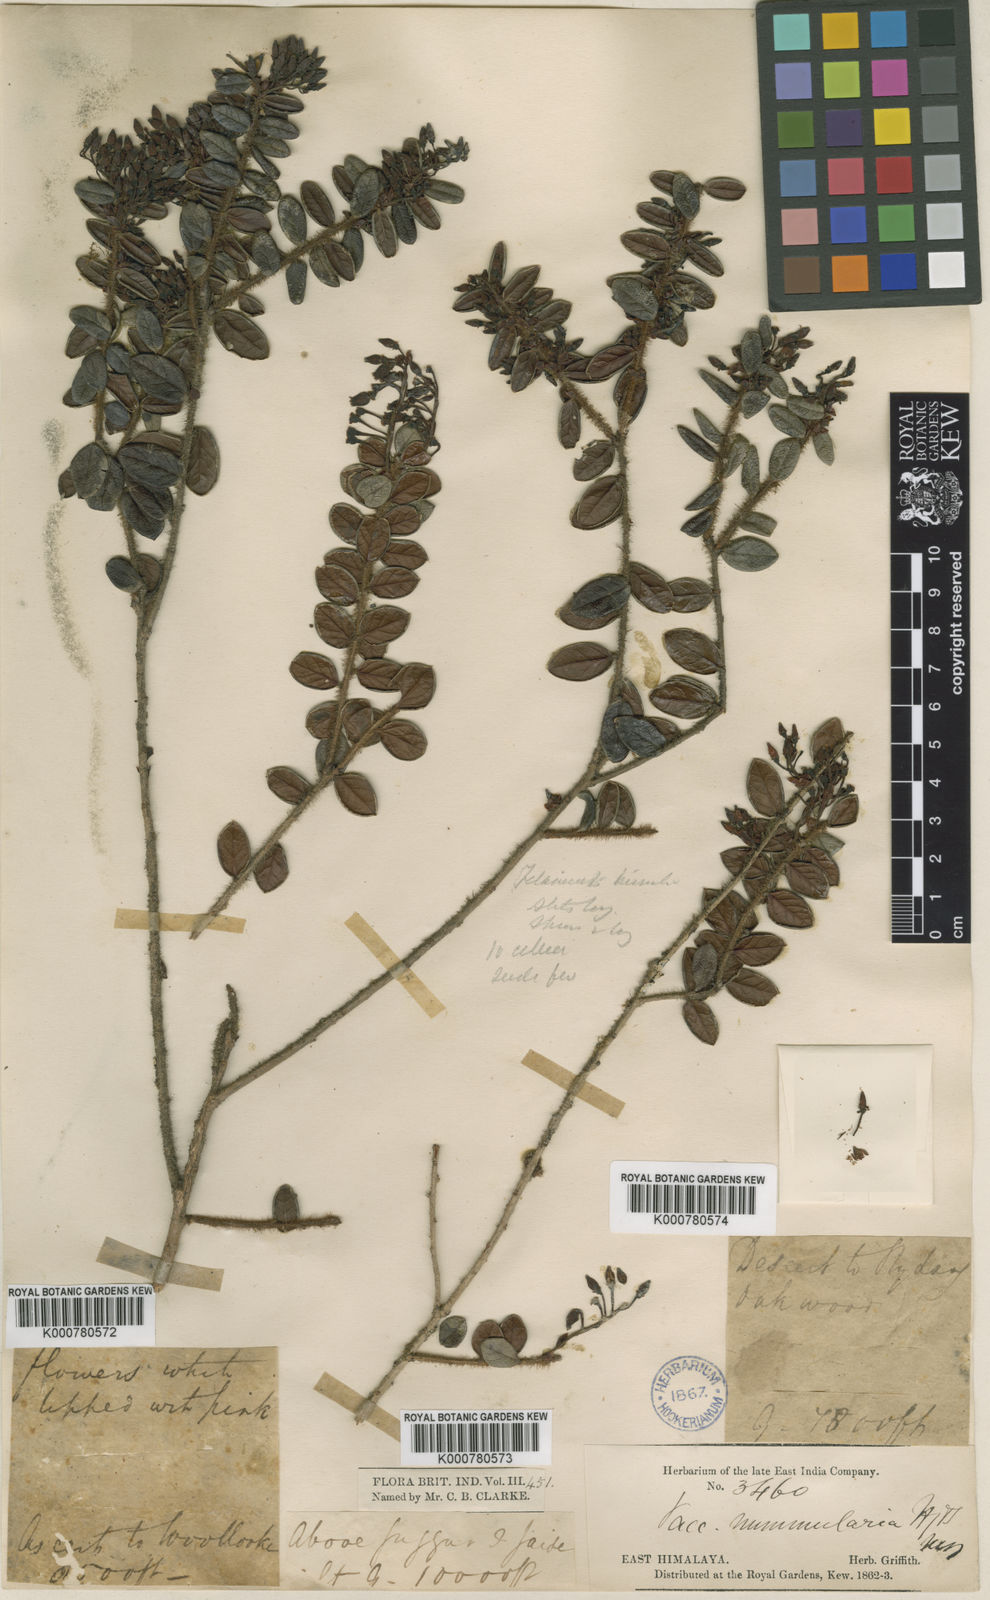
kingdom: Plantae
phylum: Tracheophyta
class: Magnoliopsida
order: Ericales
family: Ericaceae
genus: Vaccinium
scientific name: Vaccinium nummularia
